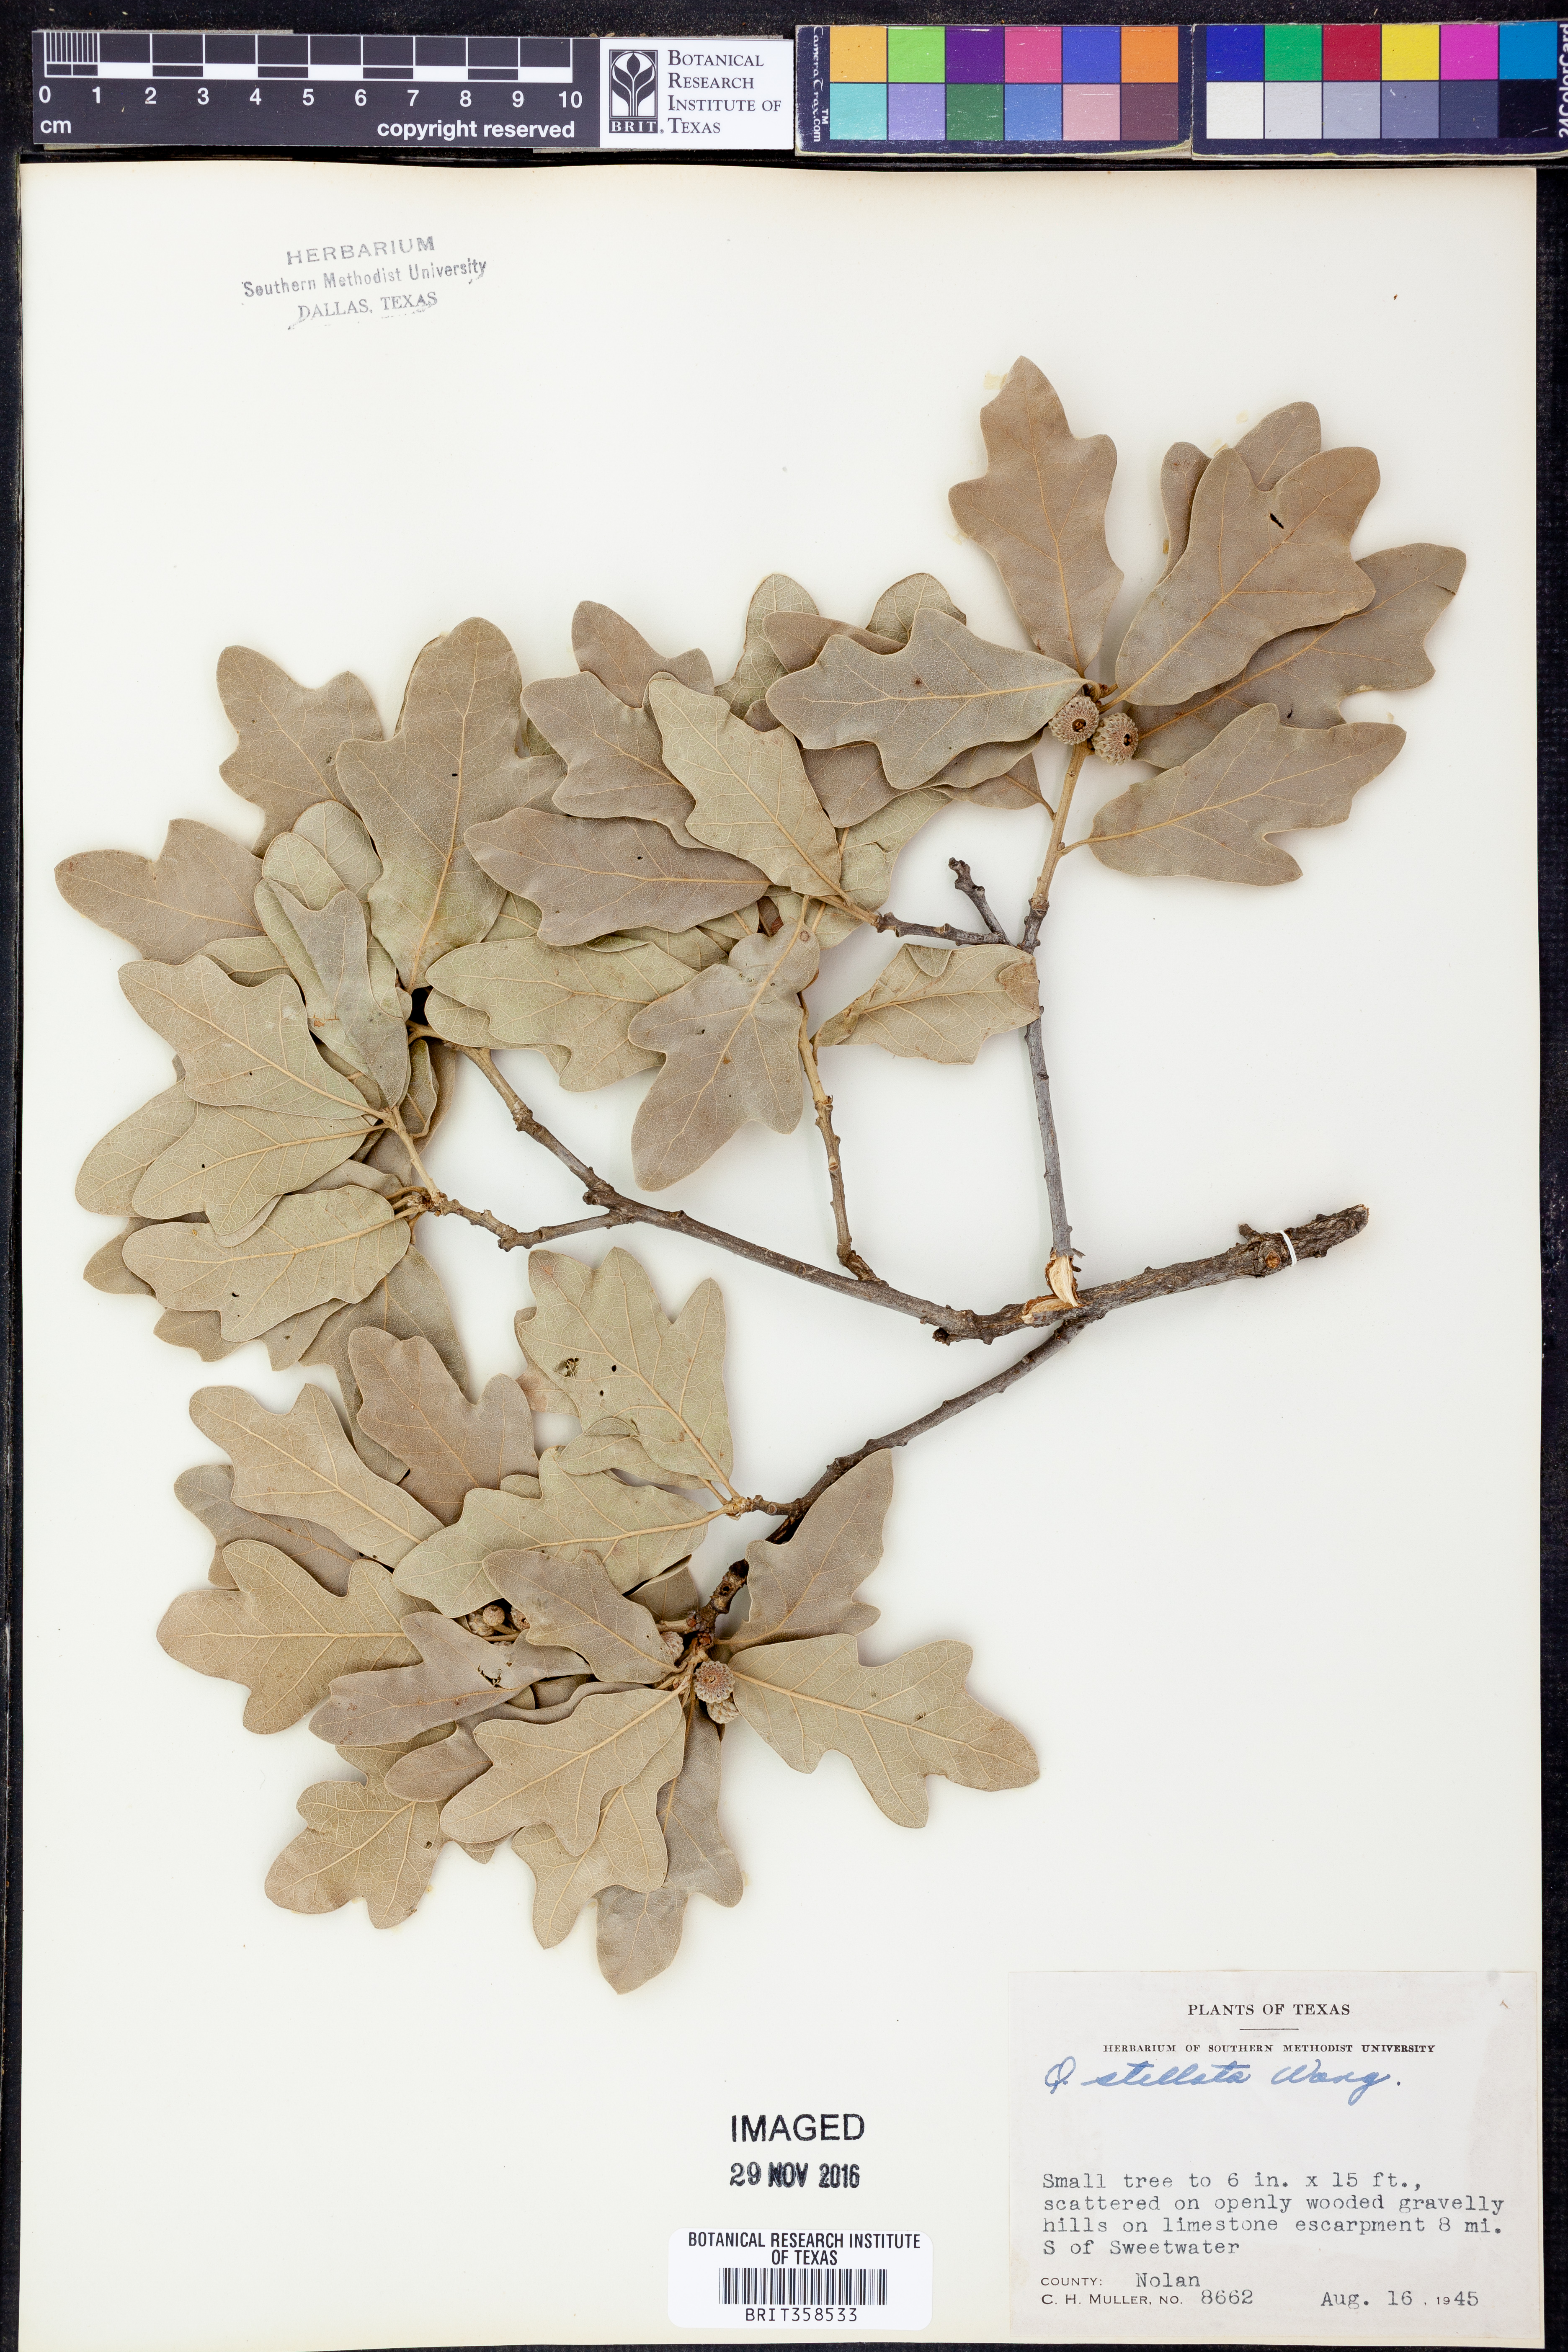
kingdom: Plantae
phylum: Tracheophyta
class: Magnoliopsida
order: Fagales
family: Fagaceae
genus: Quercus
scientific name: Quercus stellata
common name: Post oak
